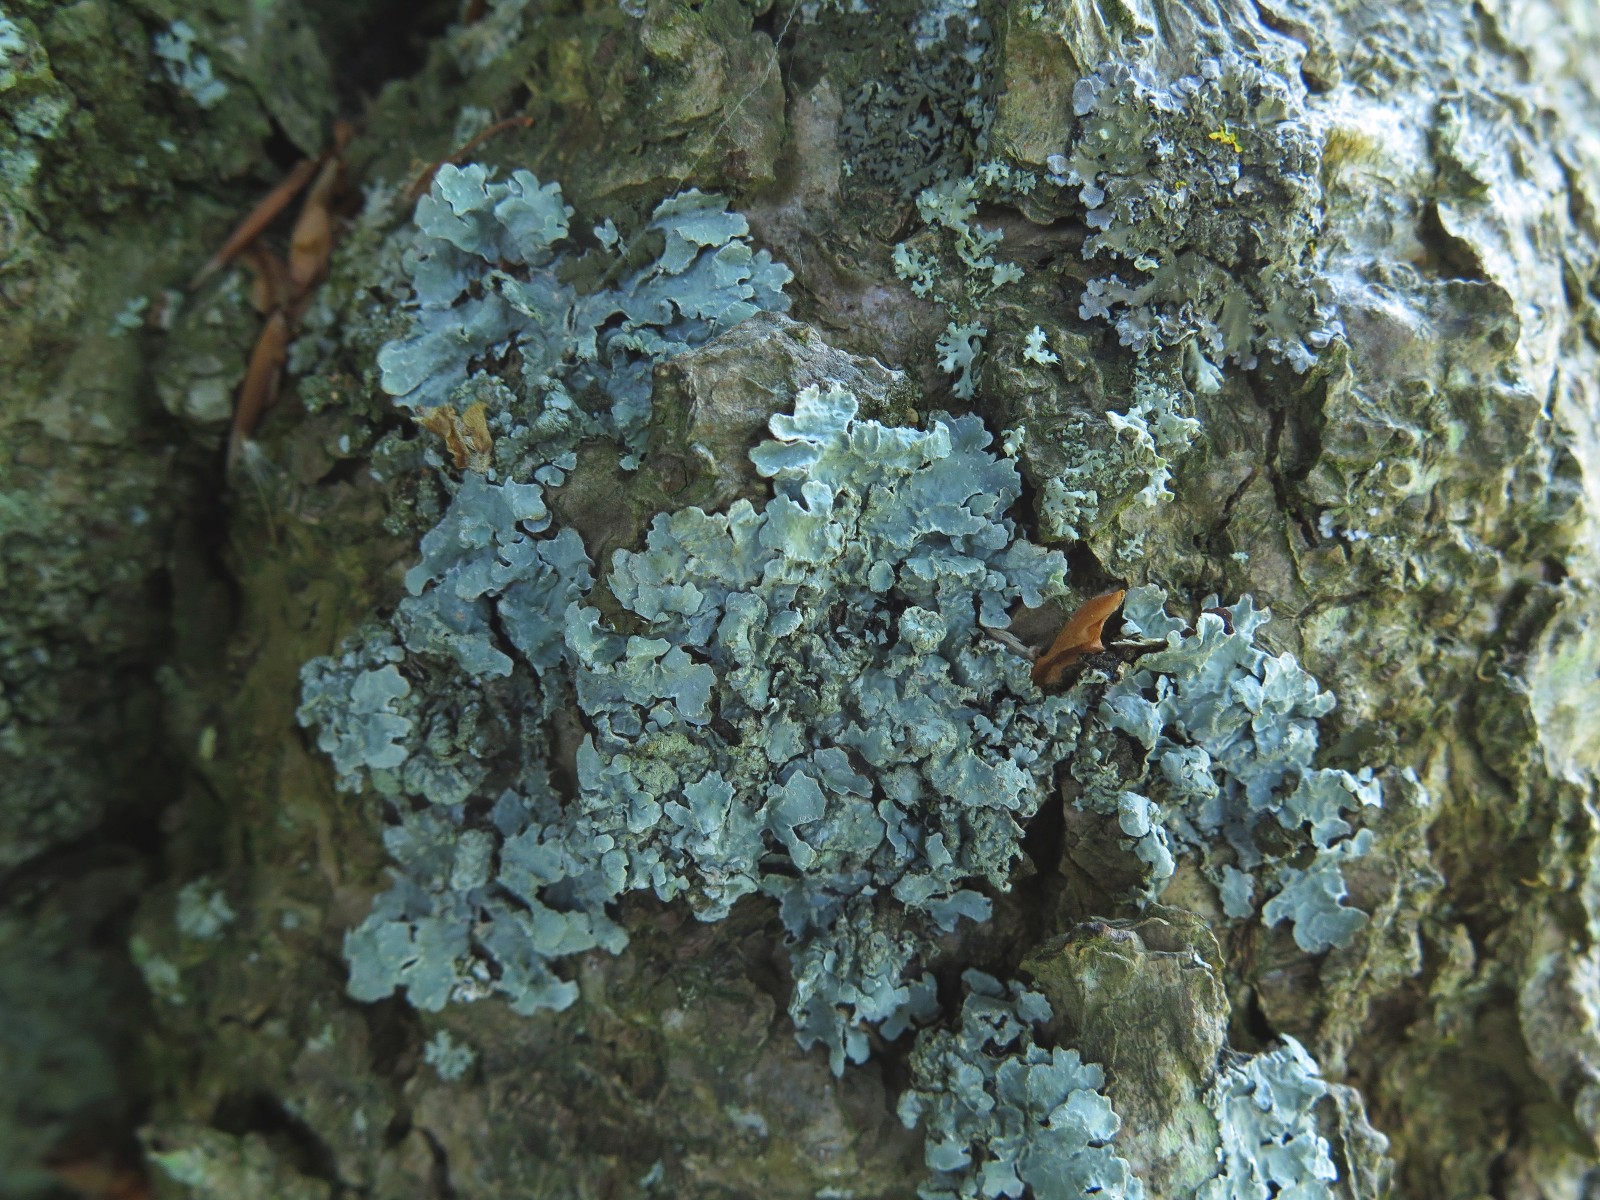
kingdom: Fungi
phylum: Ascomycota
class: Lecanoromycetes
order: Lecanorales
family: Parmeliaceae
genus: Parmelia
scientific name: Parmelia sulcata
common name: rynket skållav
